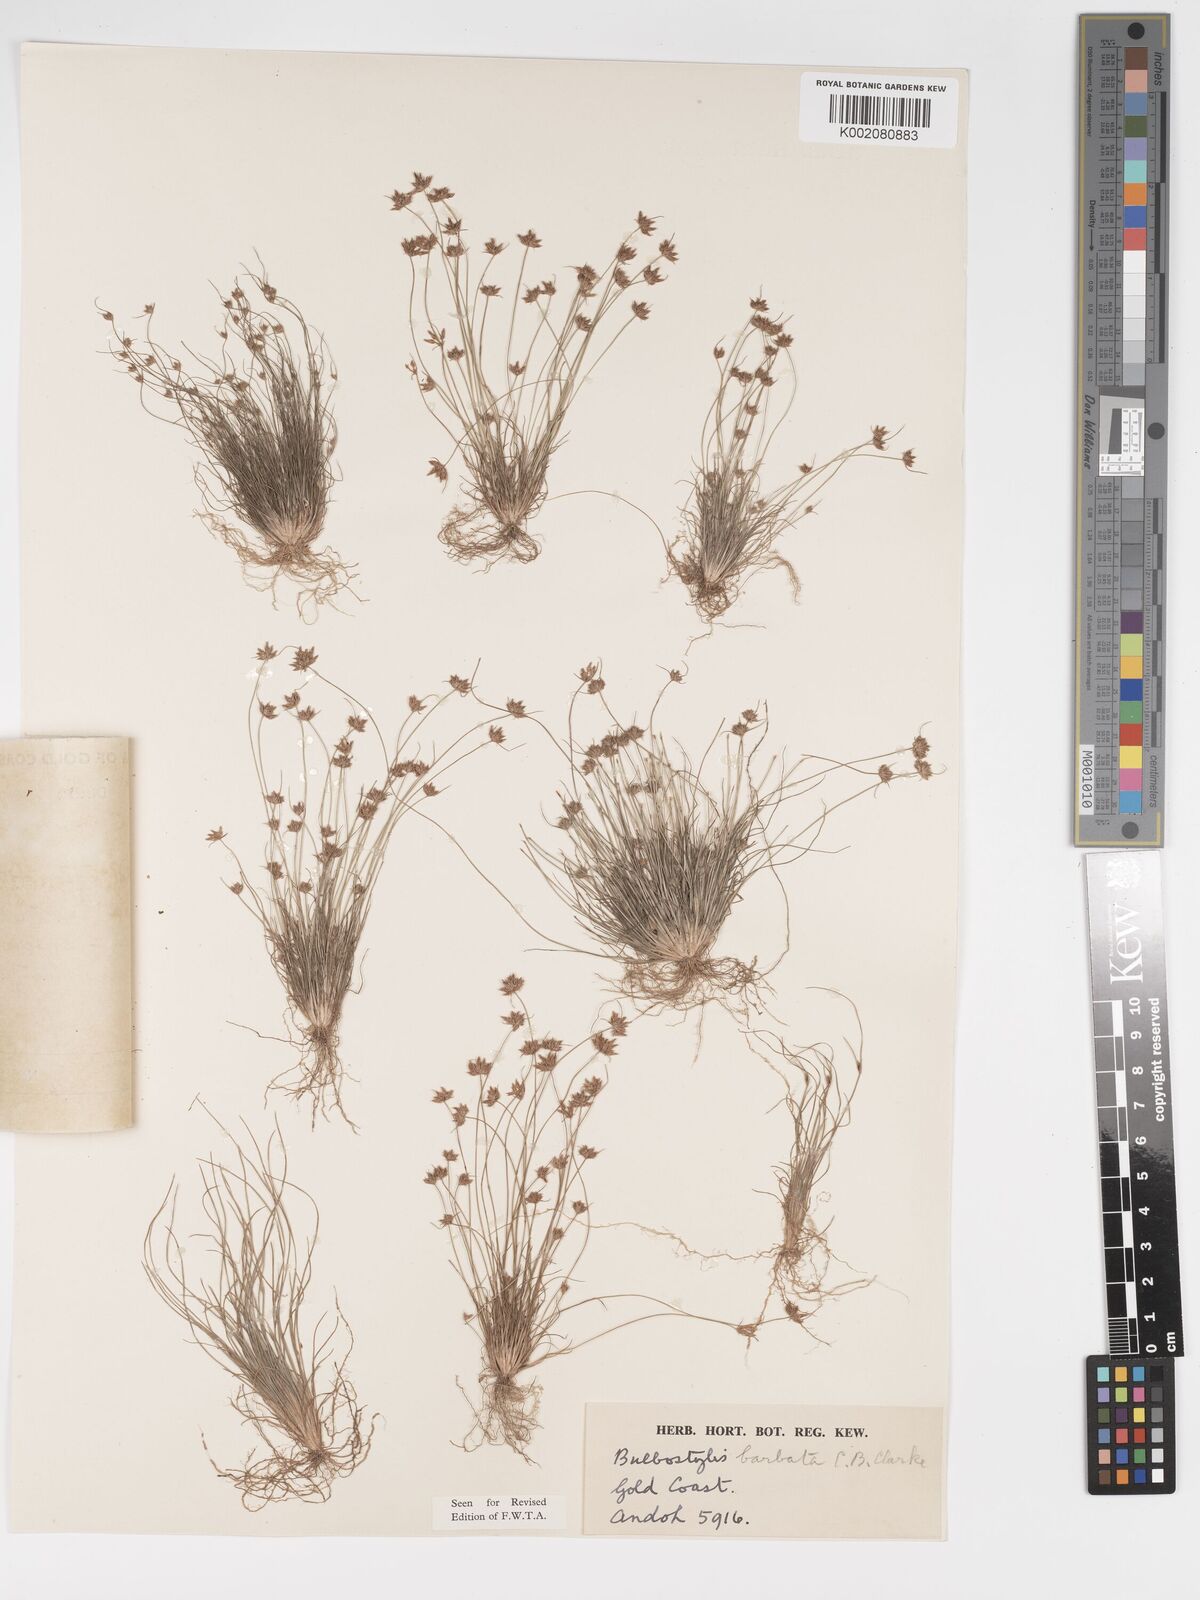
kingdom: Plantae
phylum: Tracheophyta
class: Liliopsida
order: Poales
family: Cyperaceae
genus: Bulbostylis
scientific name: Bulbostylis barbata
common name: Watergrass
